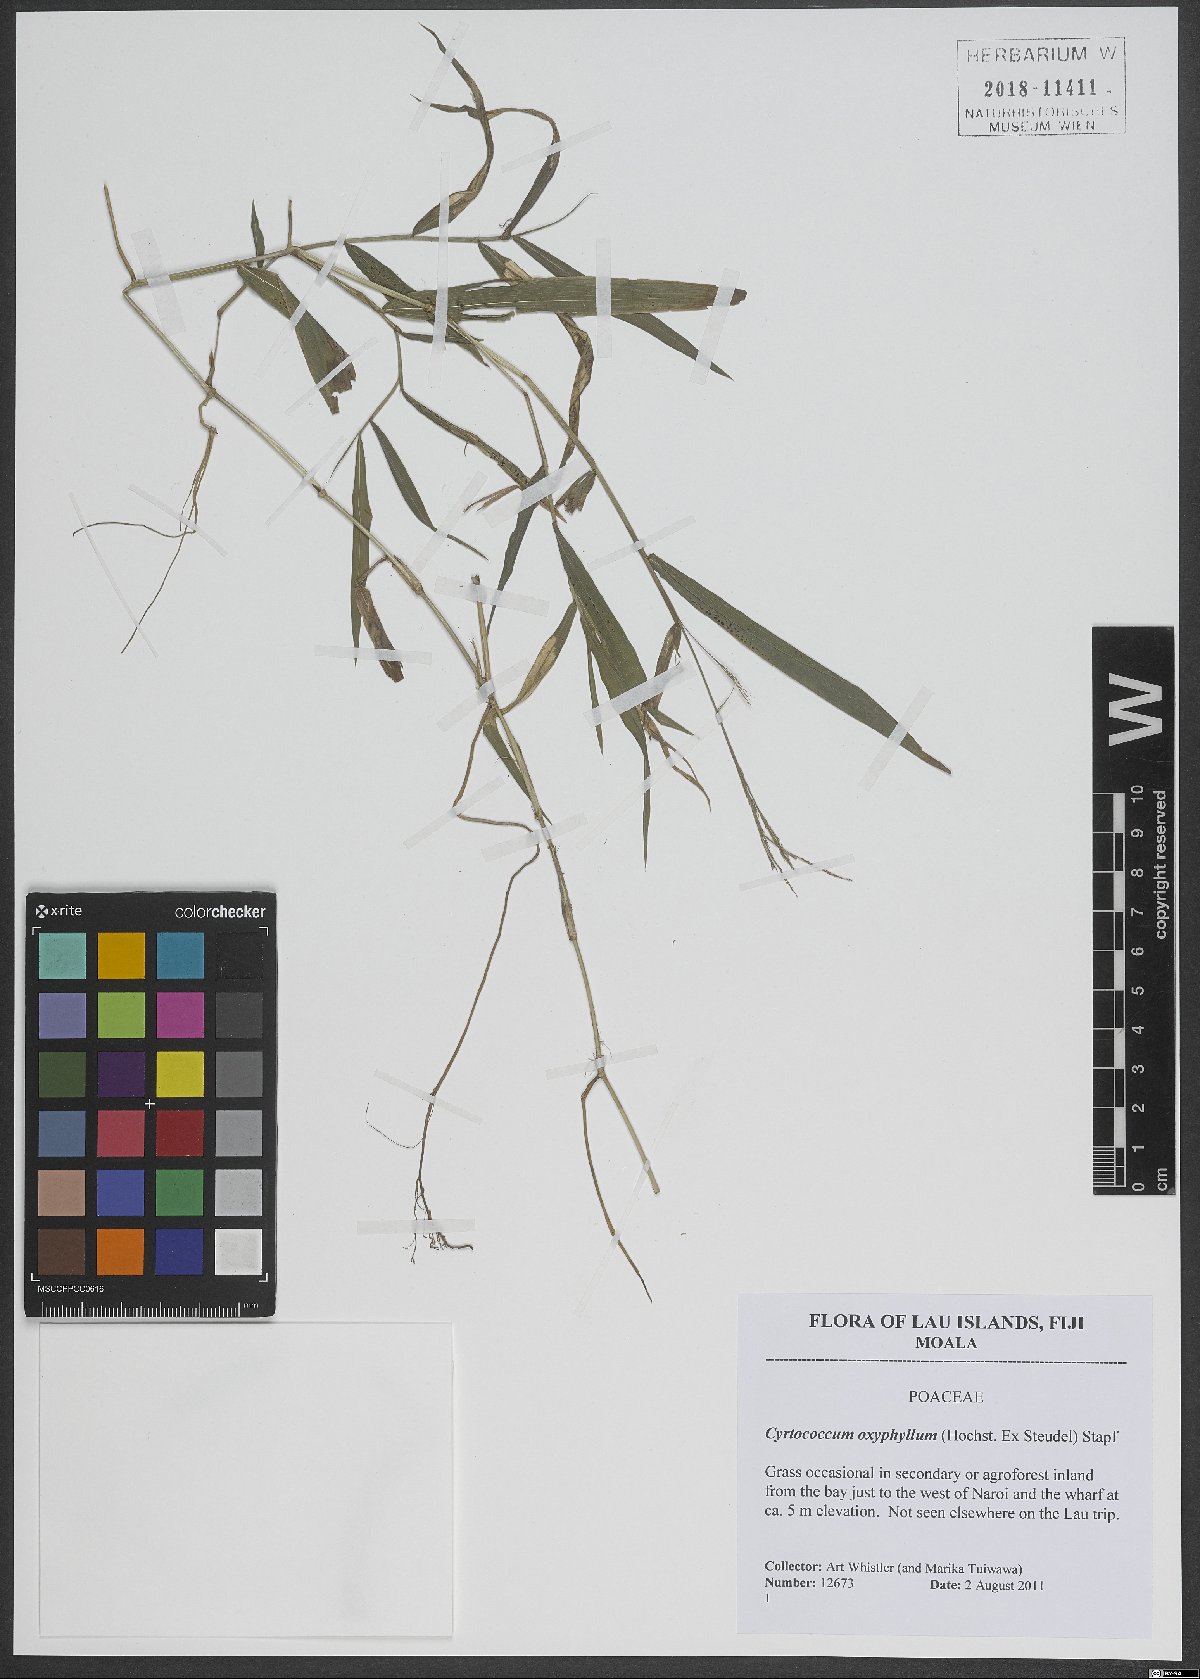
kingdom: Plantae
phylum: Tracheophyta
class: Liliopsida
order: Poales
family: Poaceae
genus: Cyrtococcum
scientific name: Cyrtococcum oxyphyllum
